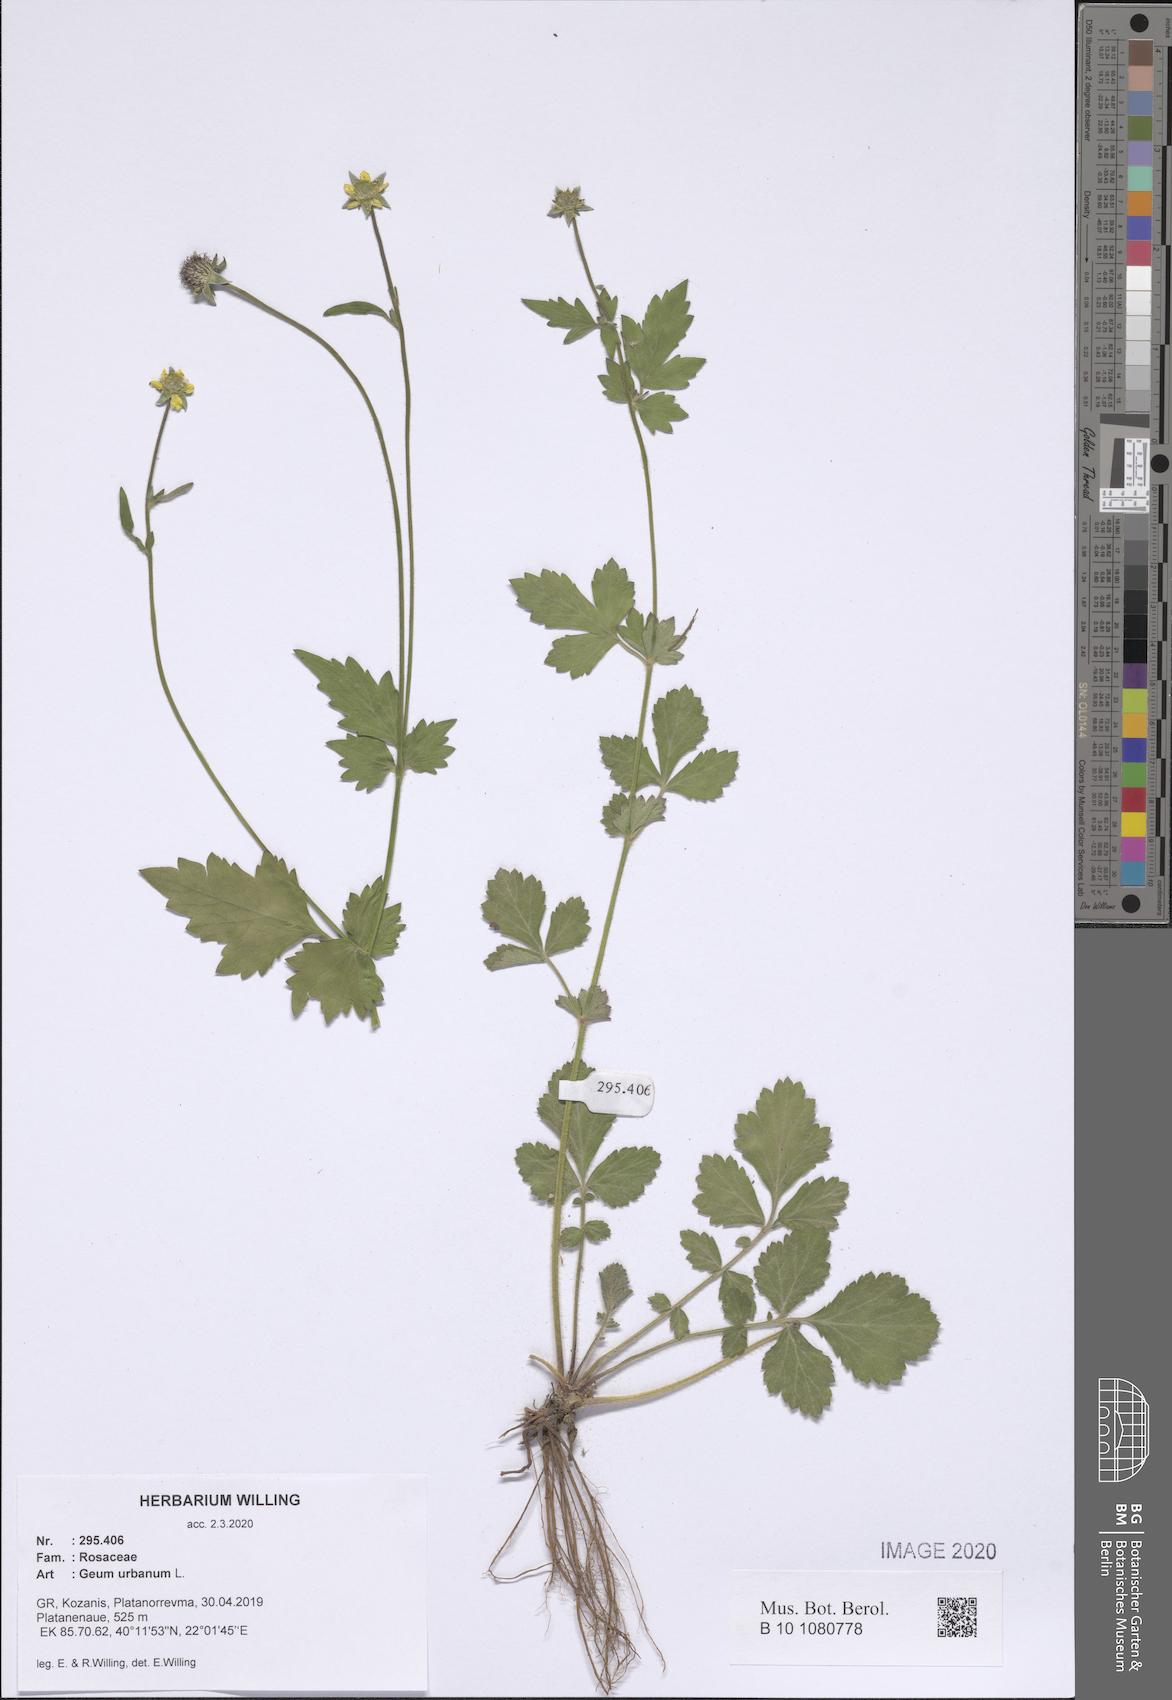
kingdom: Plantae
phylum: Tracheophyta
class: Magnoliopsida
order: Rosales
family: Rosaceae
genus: Geum
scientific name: Geum urbanum
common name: Wood avens
